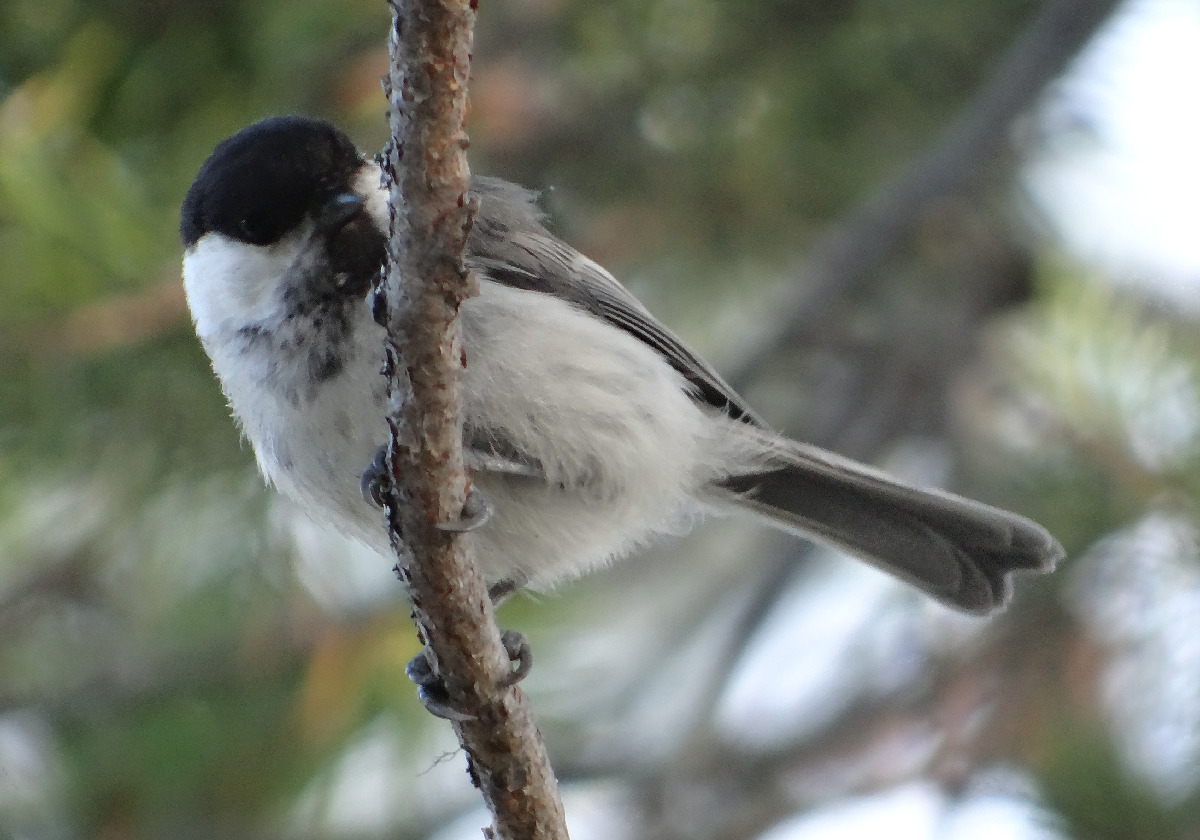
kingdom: Animalia
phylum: Chordata
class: Aves
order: Passeriformes
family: Paridae
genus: Poecile
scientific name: Poecile montanus
